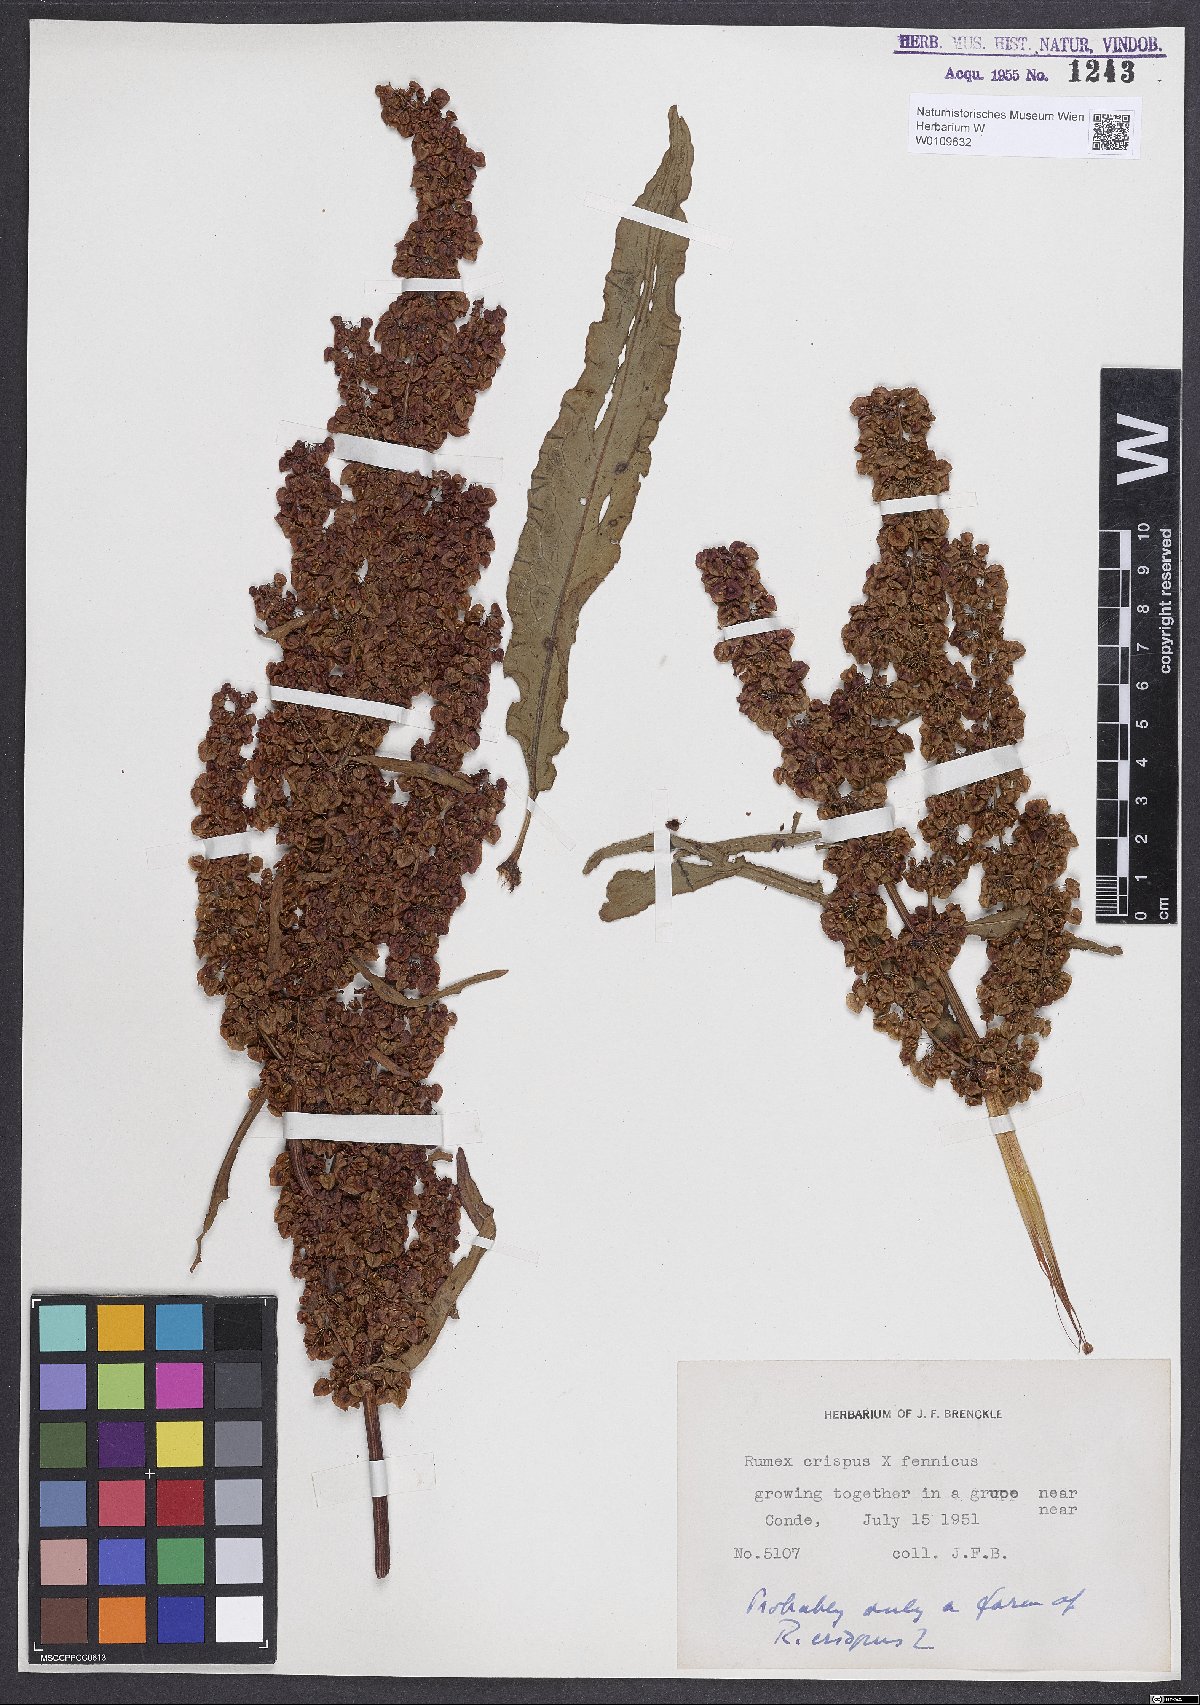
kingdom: Plantae
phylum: Tracheophyta
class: Magnoliopsida
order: Caryophyllales
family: Polygonaceae
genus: Rumex
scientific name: Rumex crispus
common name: Curled dock
